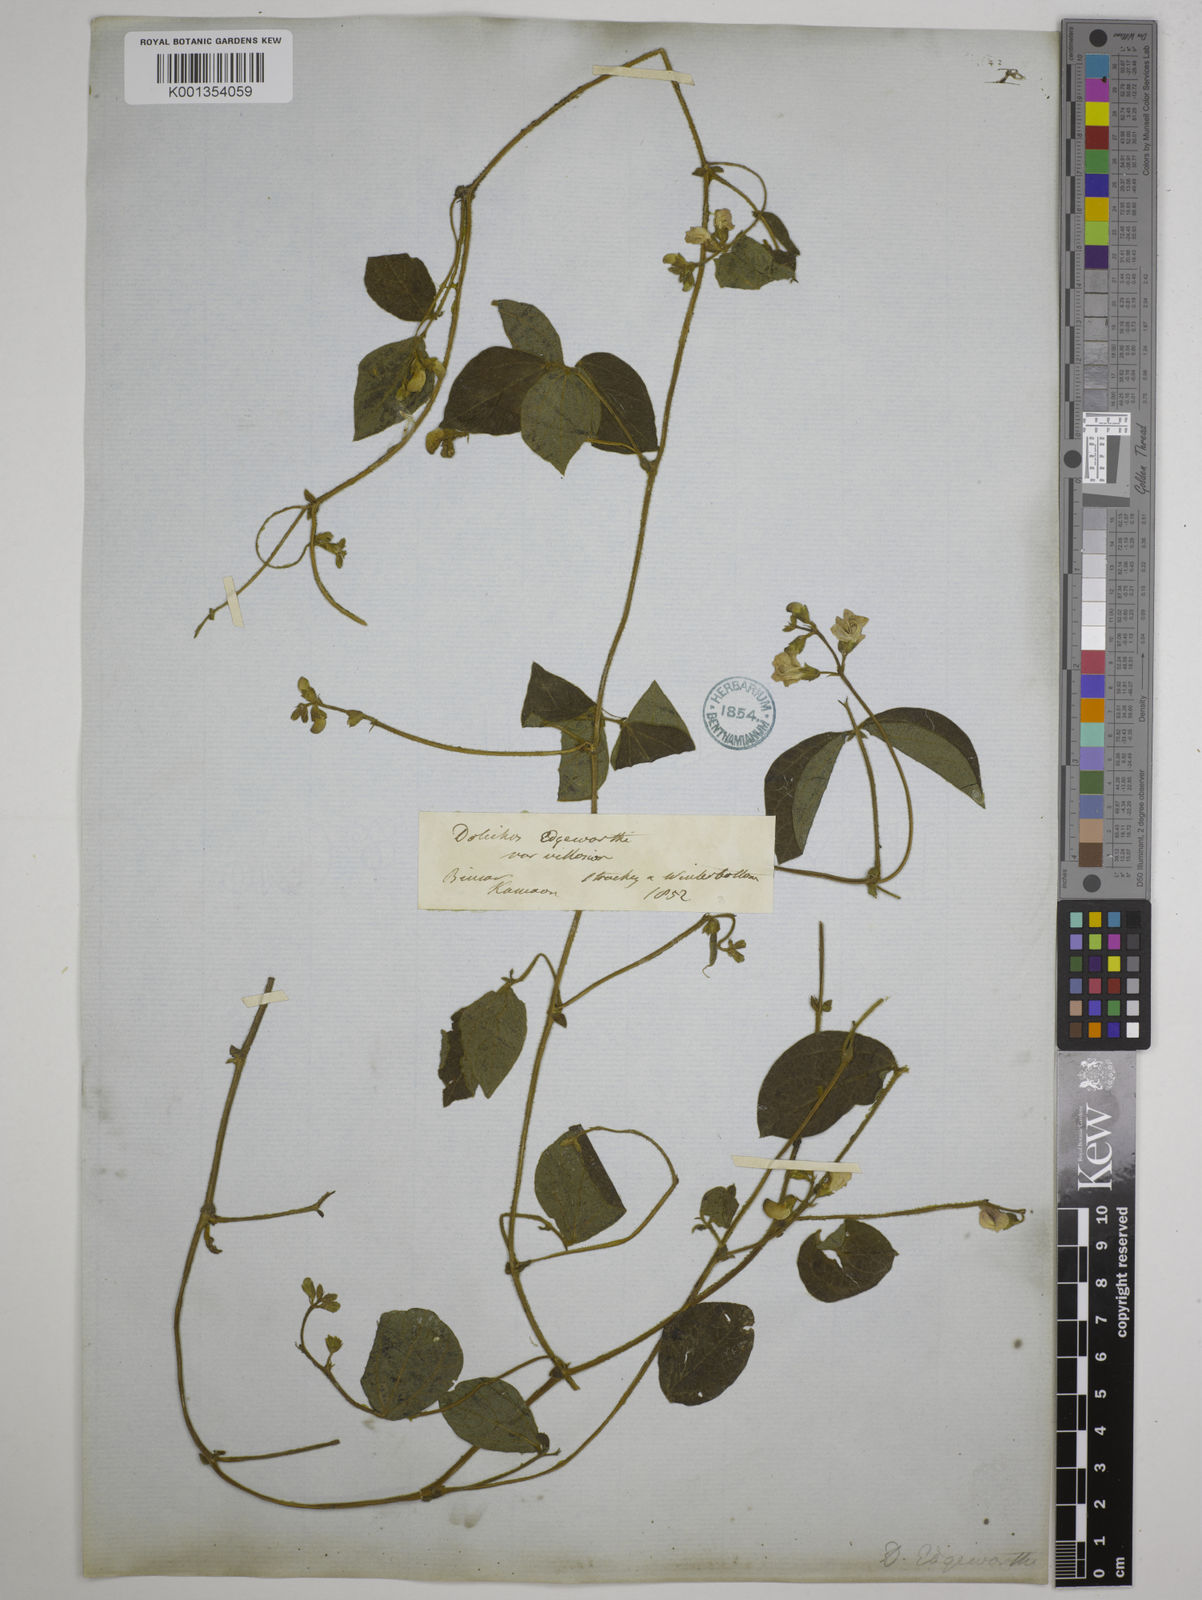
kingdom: Plantae
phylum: Tracheophyta
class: Magnoliopsida
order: Fabales
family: Fabaceae
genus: Dolichos
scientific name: Dolichos
